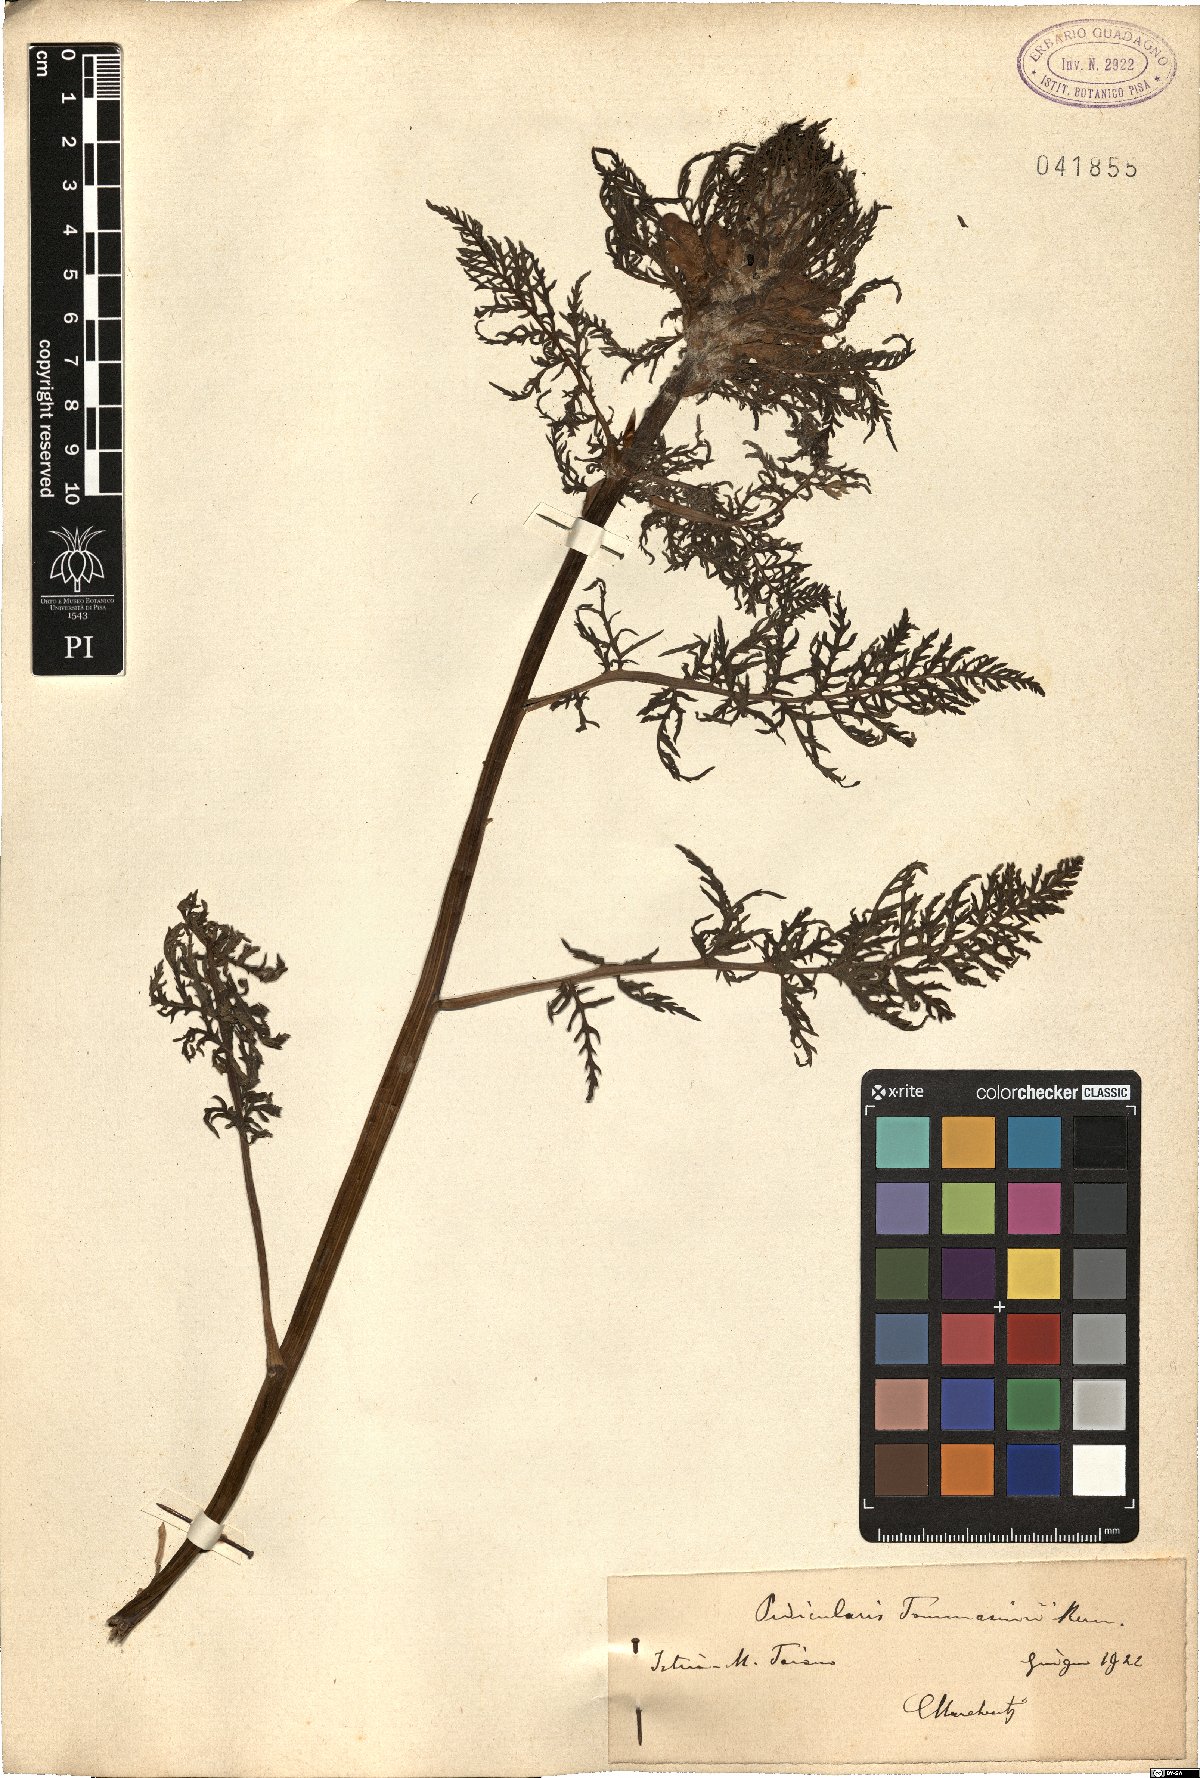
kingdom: Plantae
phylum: Tracheophyta
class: Magnoliopsida
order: Lamiales
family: Orobanchaceae
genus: Pedicularis
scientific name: Pedicularis friderici-augusti
